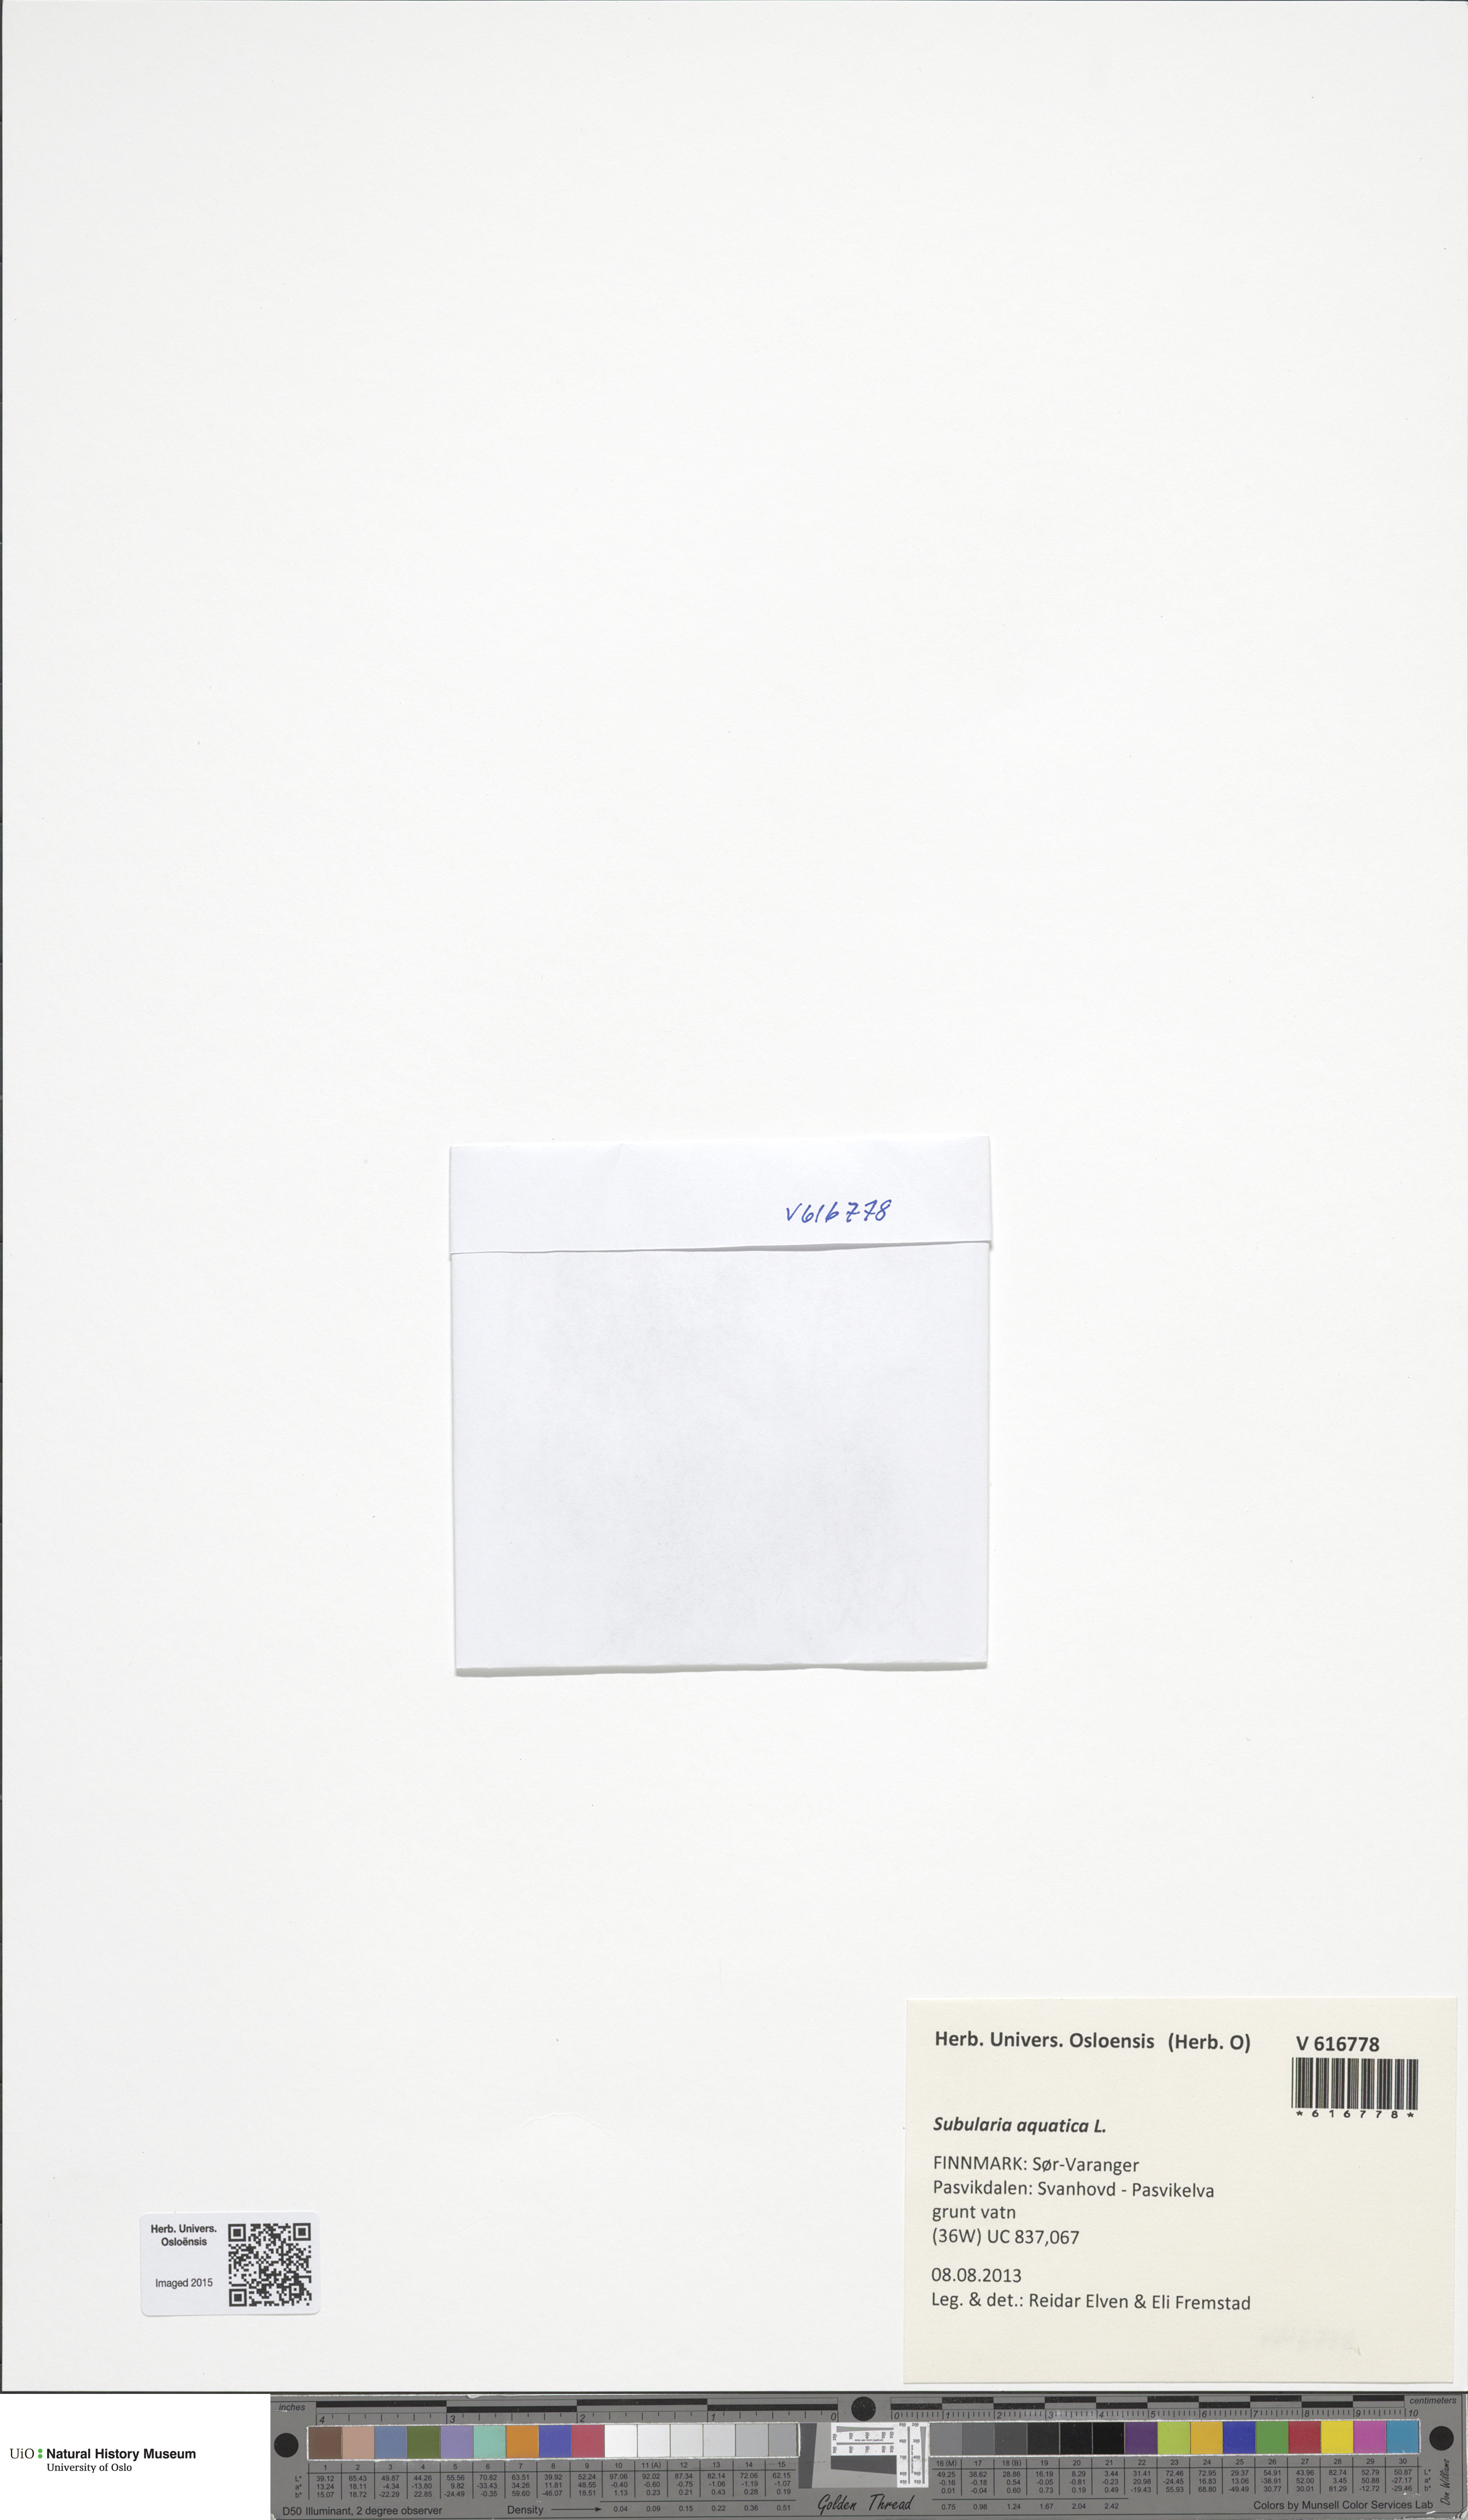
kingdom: Plantae
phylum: Tracheophyta
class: Magnoliopsida
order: Brassicales
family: Brassicaceae
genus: Subularia
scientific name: Subularia aquatica
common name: Awlwort
